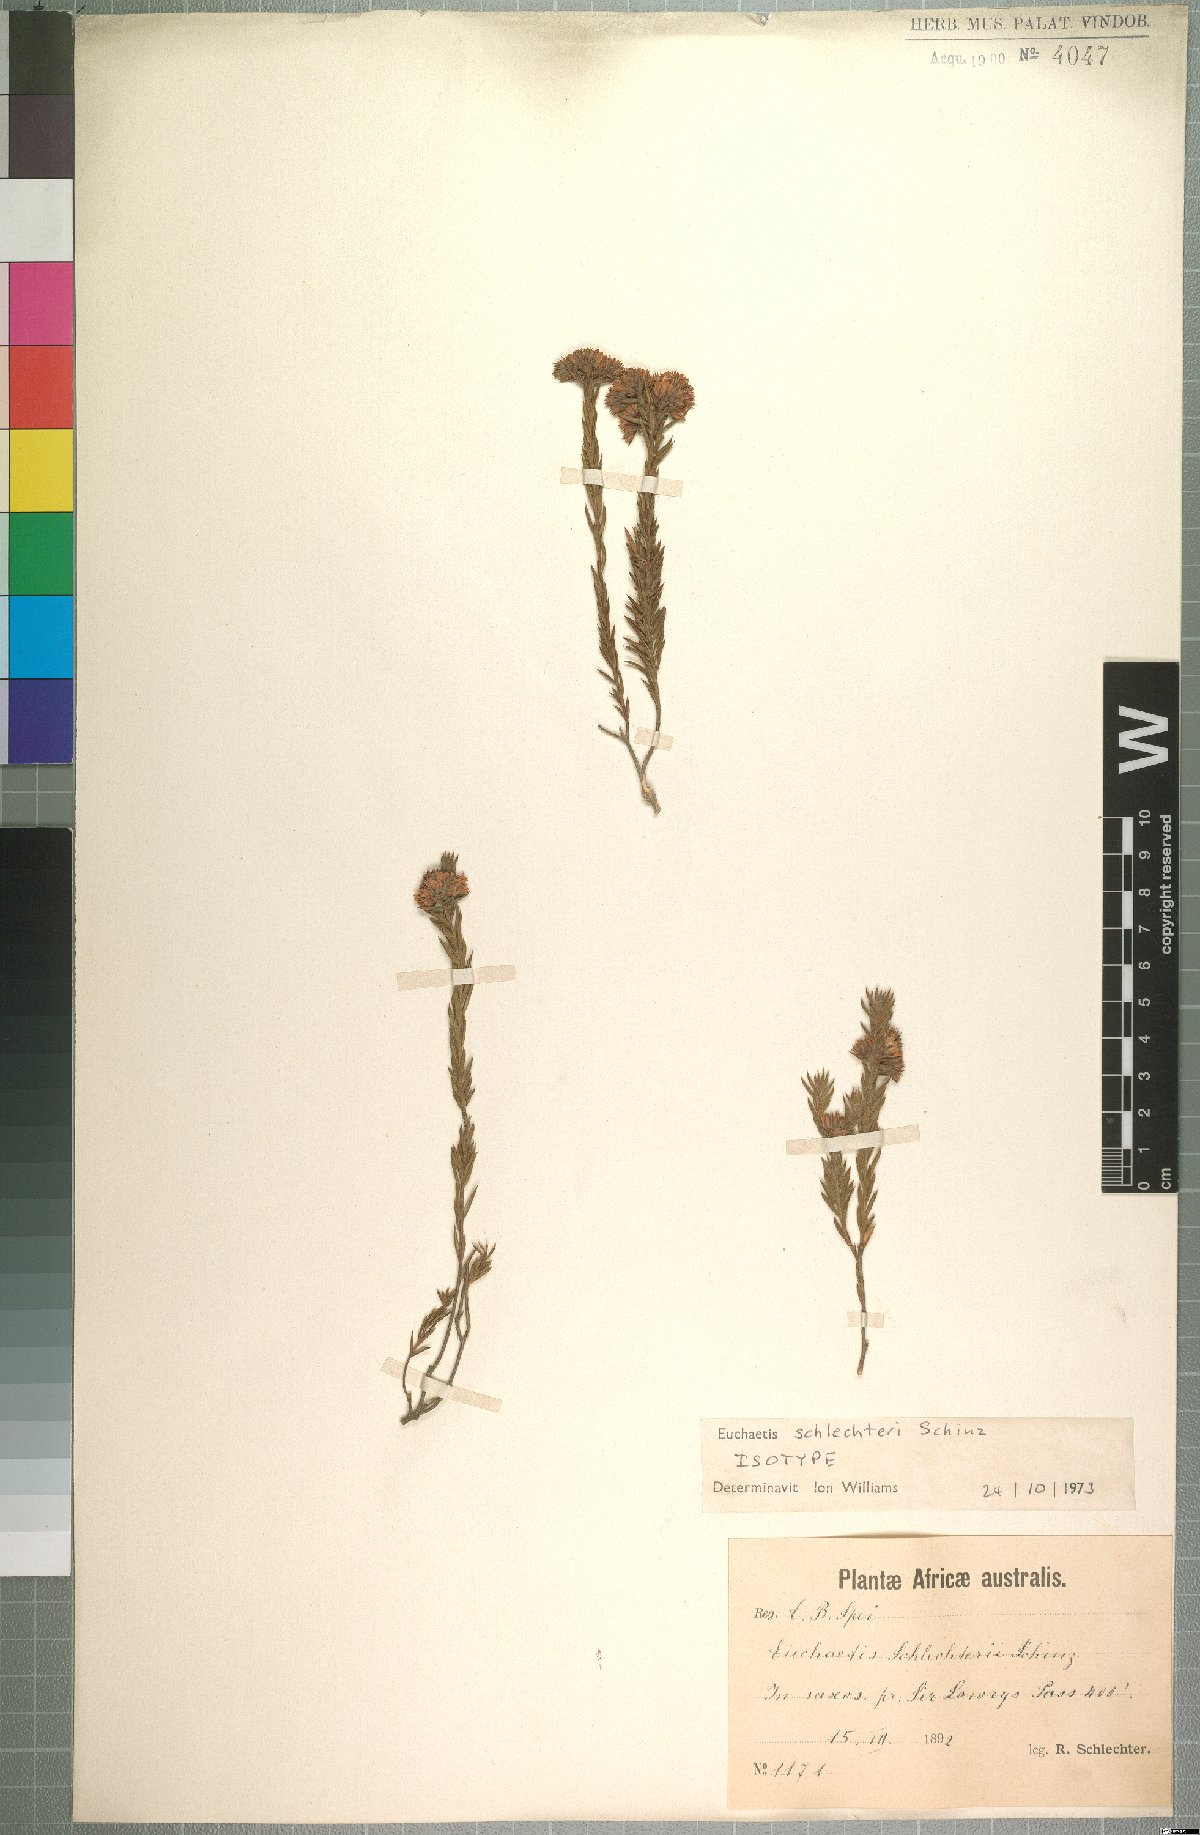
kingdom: Plantae
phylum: Tracheophyta
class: Magnoliopsida
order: Sapindales
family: Rutaceae
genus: Euchaetis
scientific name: Euchaetis schlechteri
